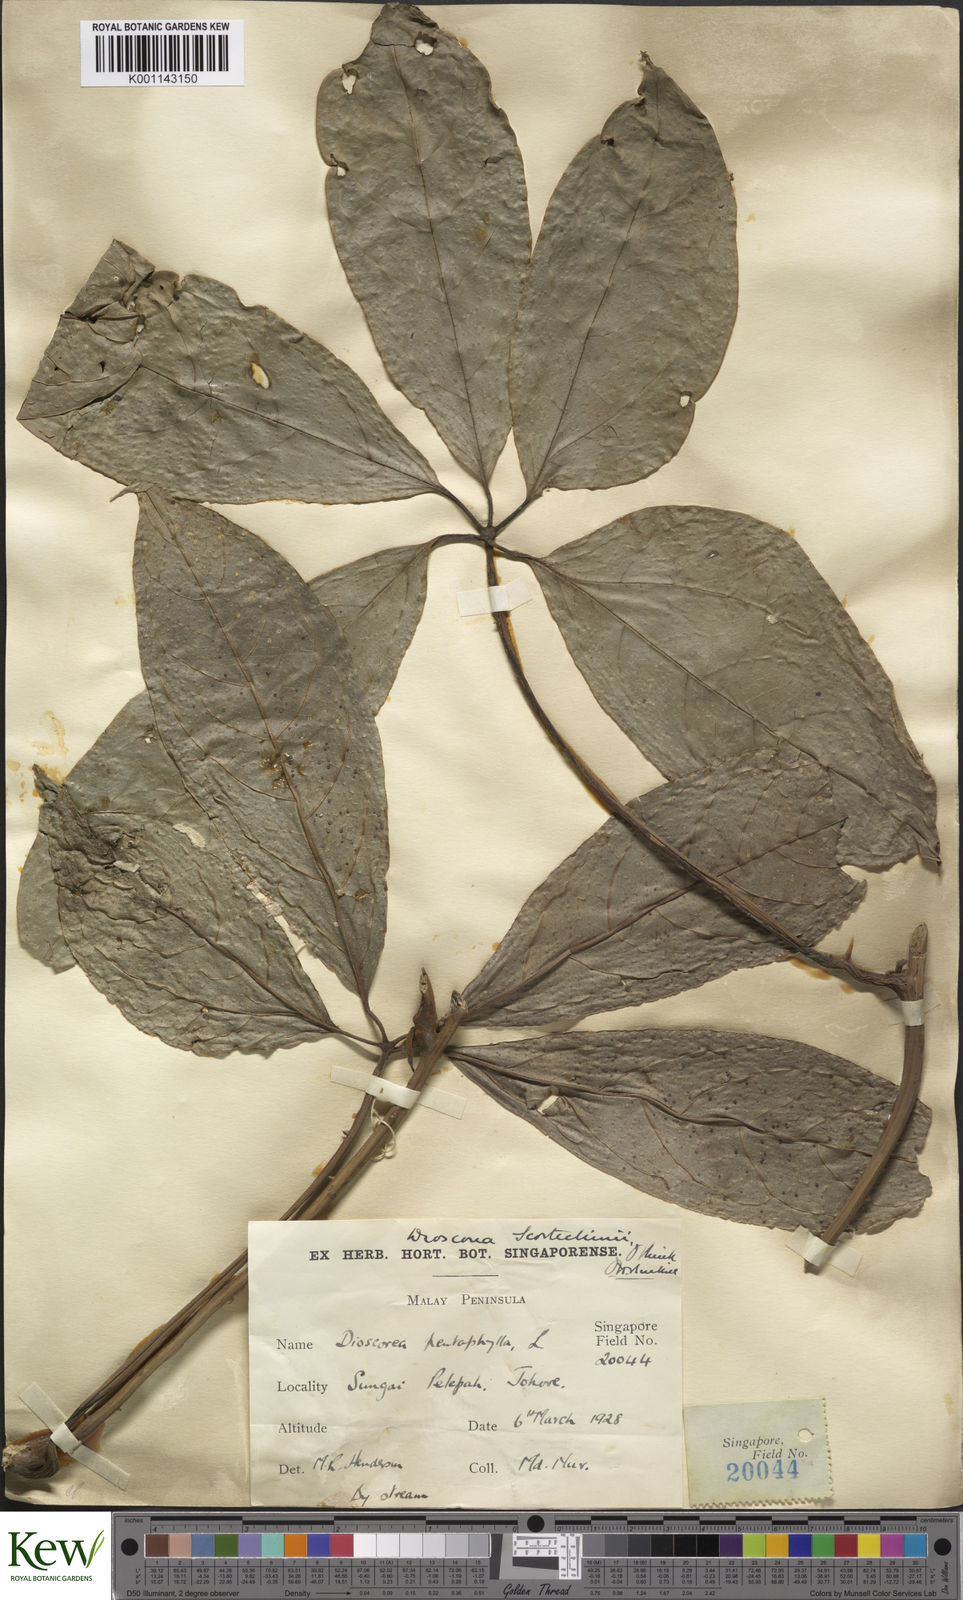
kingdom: Plantae
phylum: Tracheophyta
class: Liliopsida
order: Dioscoreales
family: Dioscoreaceae
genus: Dioscorea
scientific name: Dioscorea scortechinii
